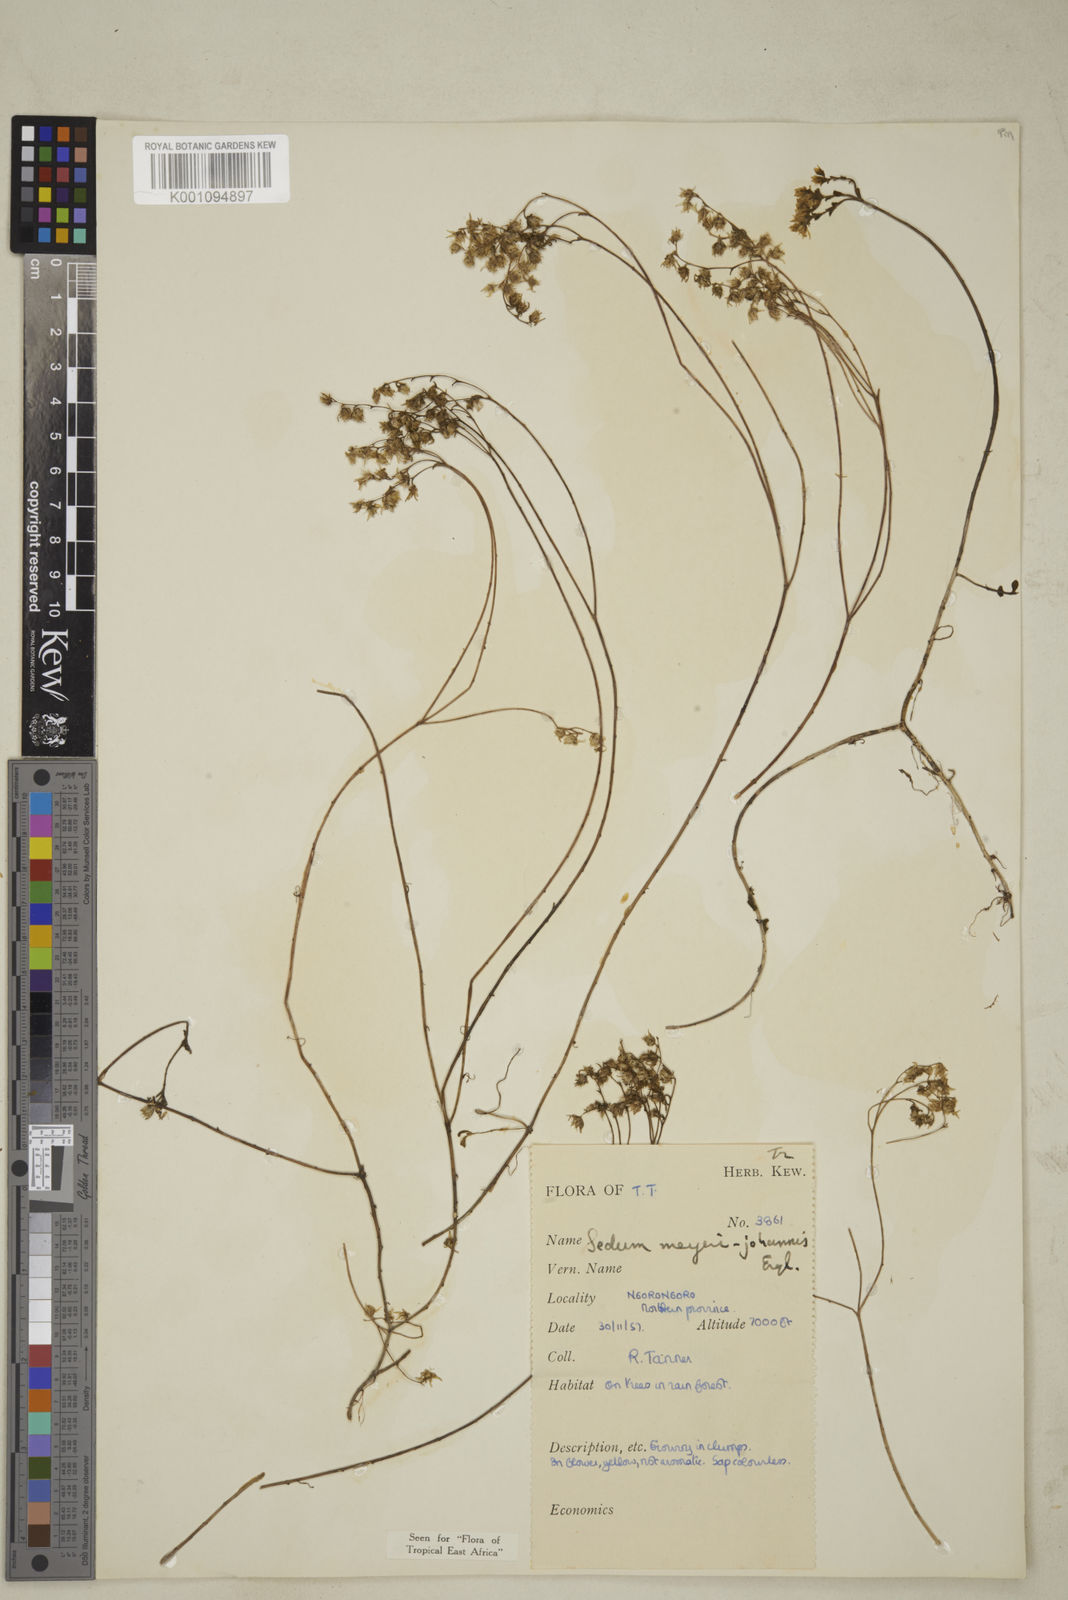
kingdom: Plantae
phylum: Tracheophyta
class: Magnoliopsida
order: Saxifragales
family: Crassulaceae
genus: Sedum
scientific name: Sedum meyeri-johannis
